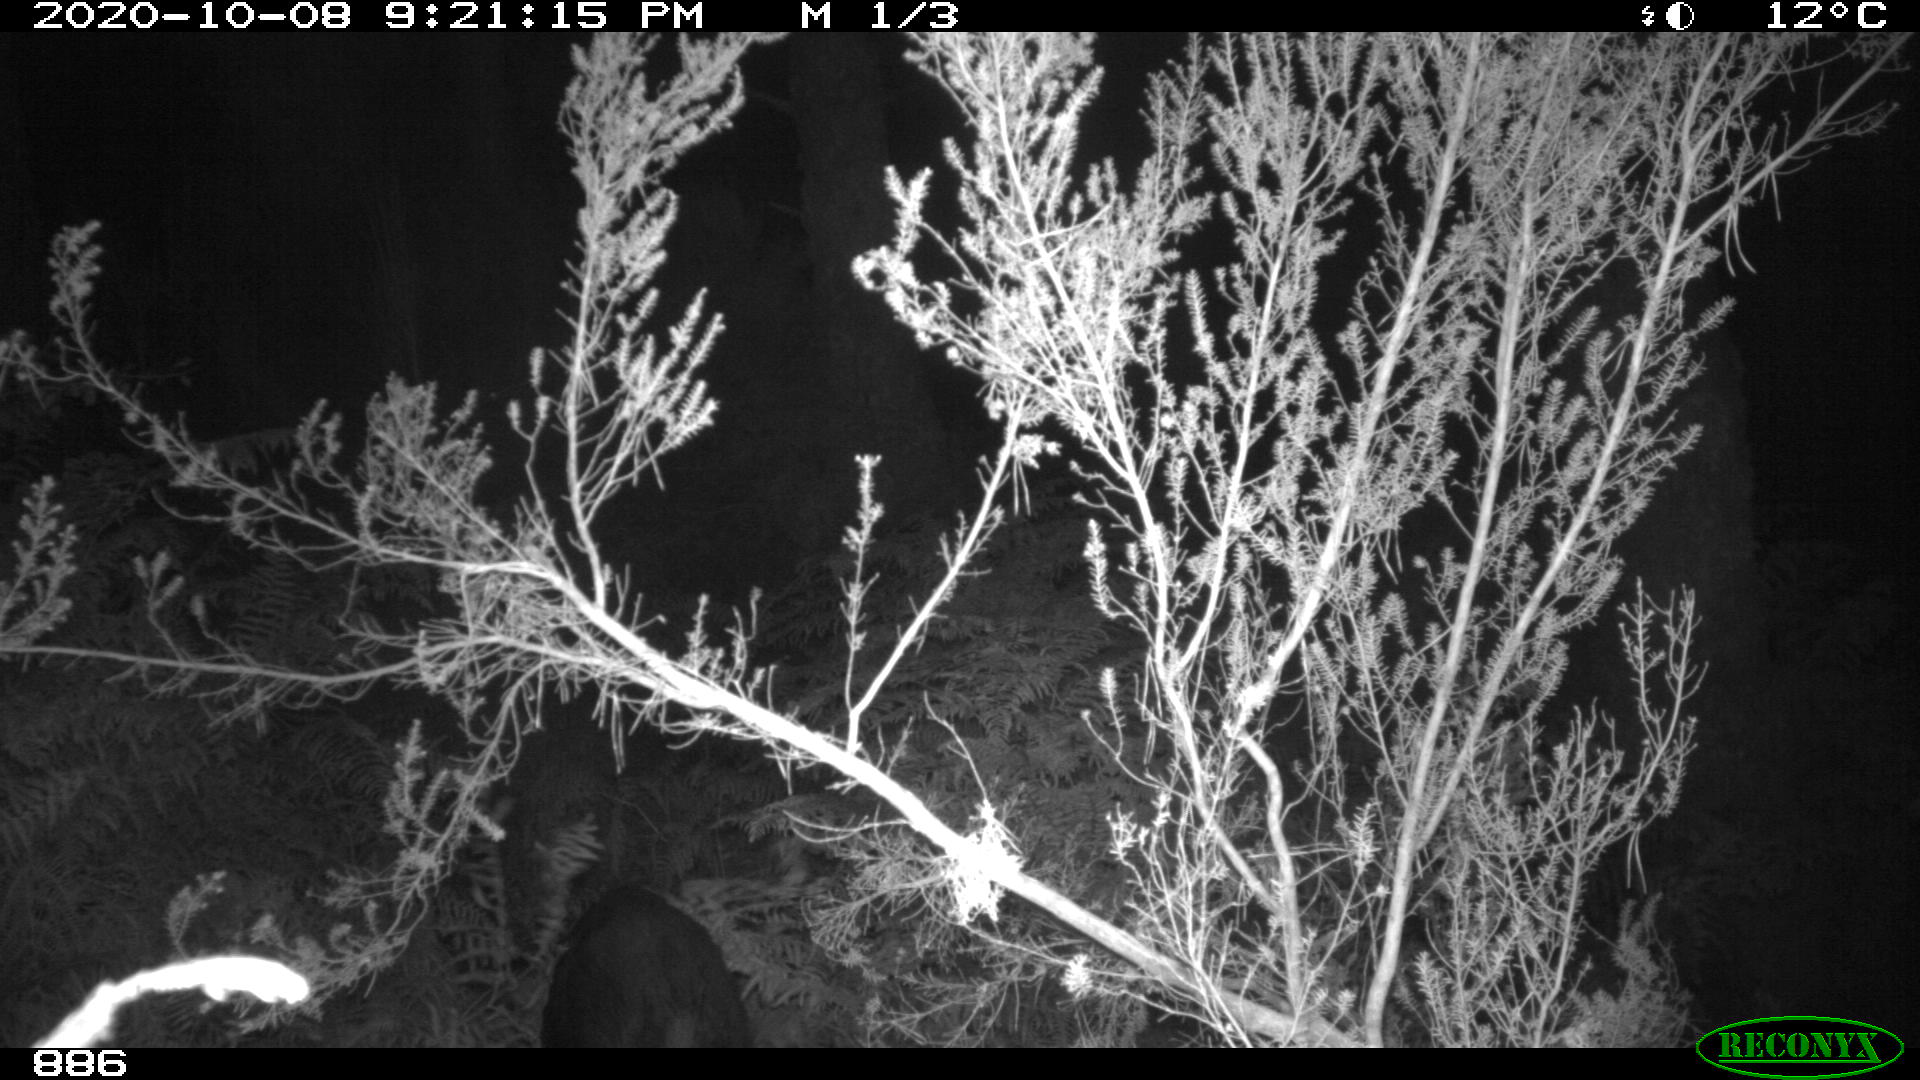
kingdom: Animalia
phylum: Chordata
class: Mammalia
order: Artiodactyla
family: Suidae
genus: Sus
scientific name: Sus scrofa
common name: Wild boar
